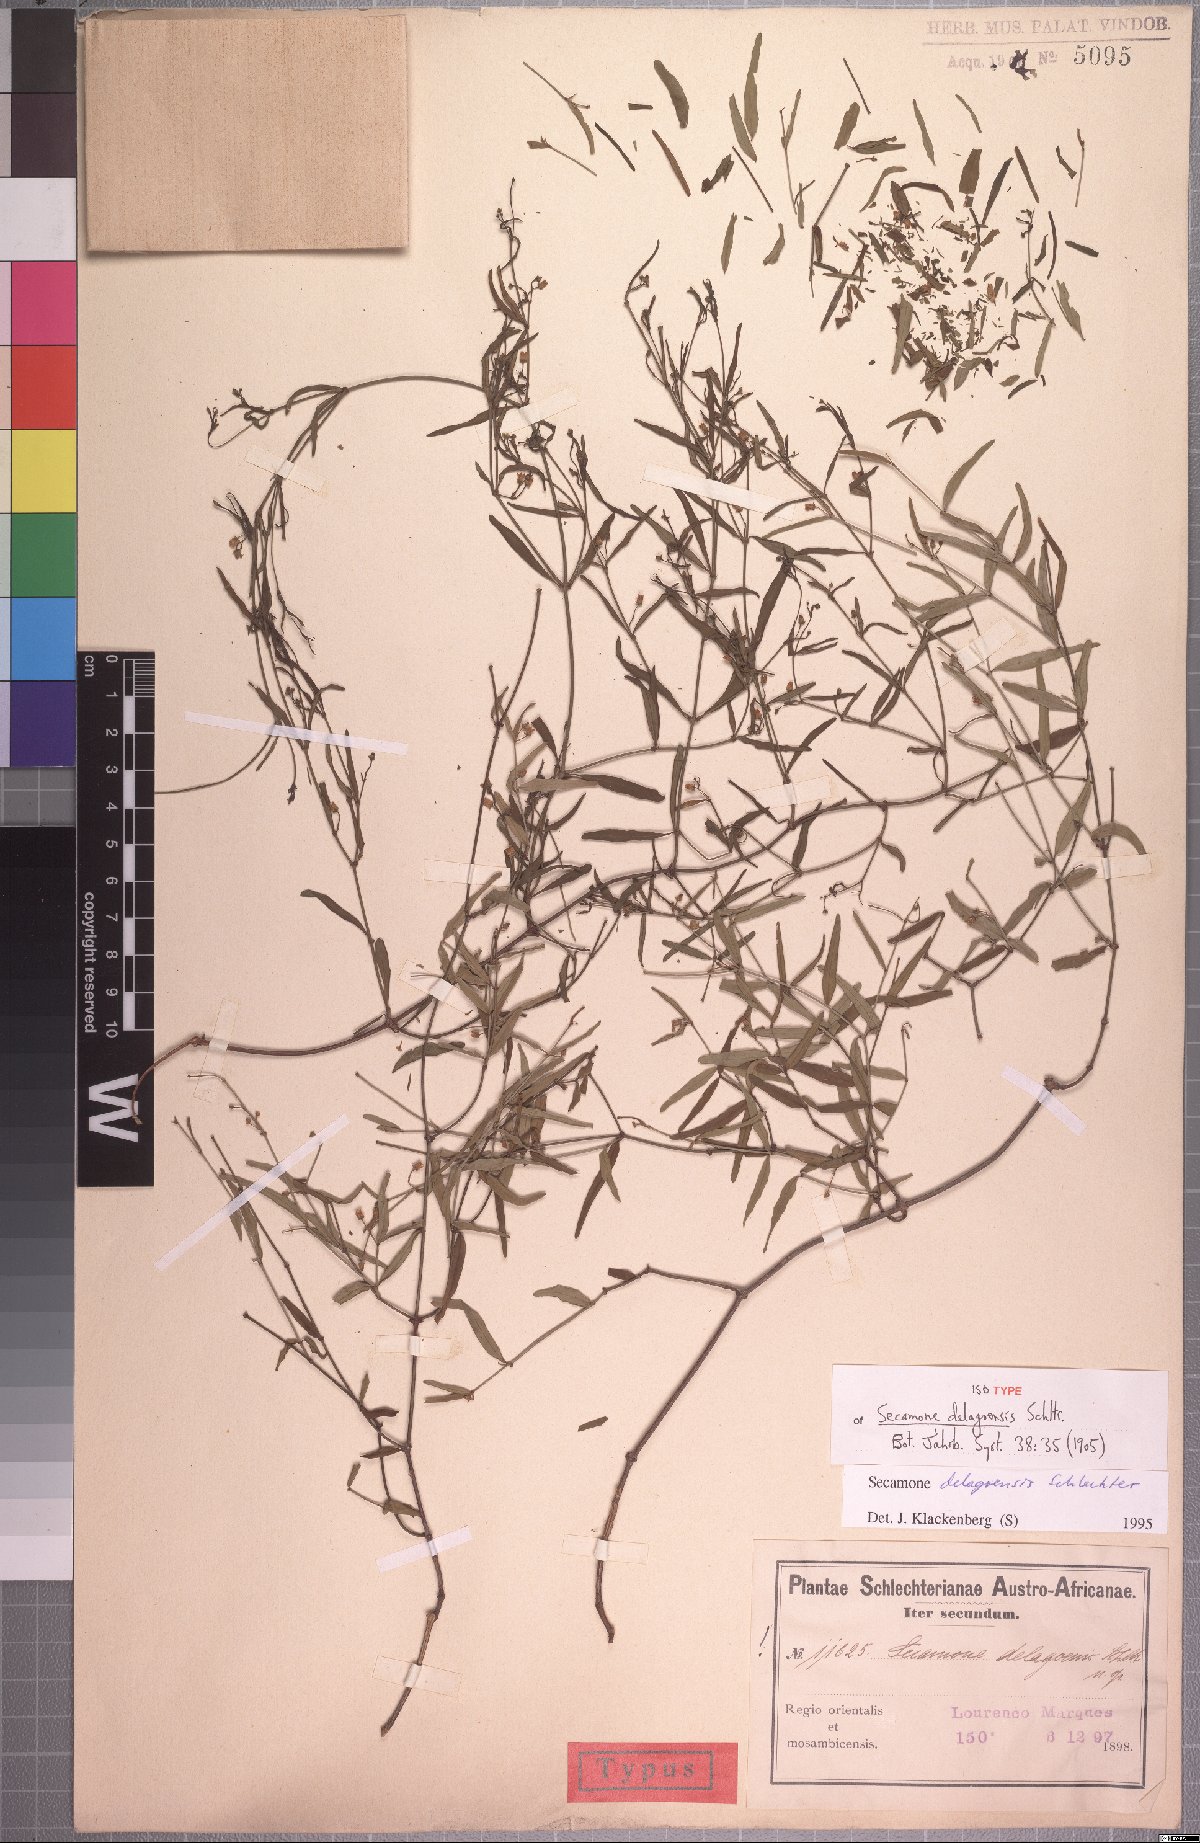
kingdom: Plantae
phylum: Tracheophyta
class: Magnoliopsida
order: Gentianales
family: Apocynaceae
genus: Secamone
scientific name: Secamone delagoensis
